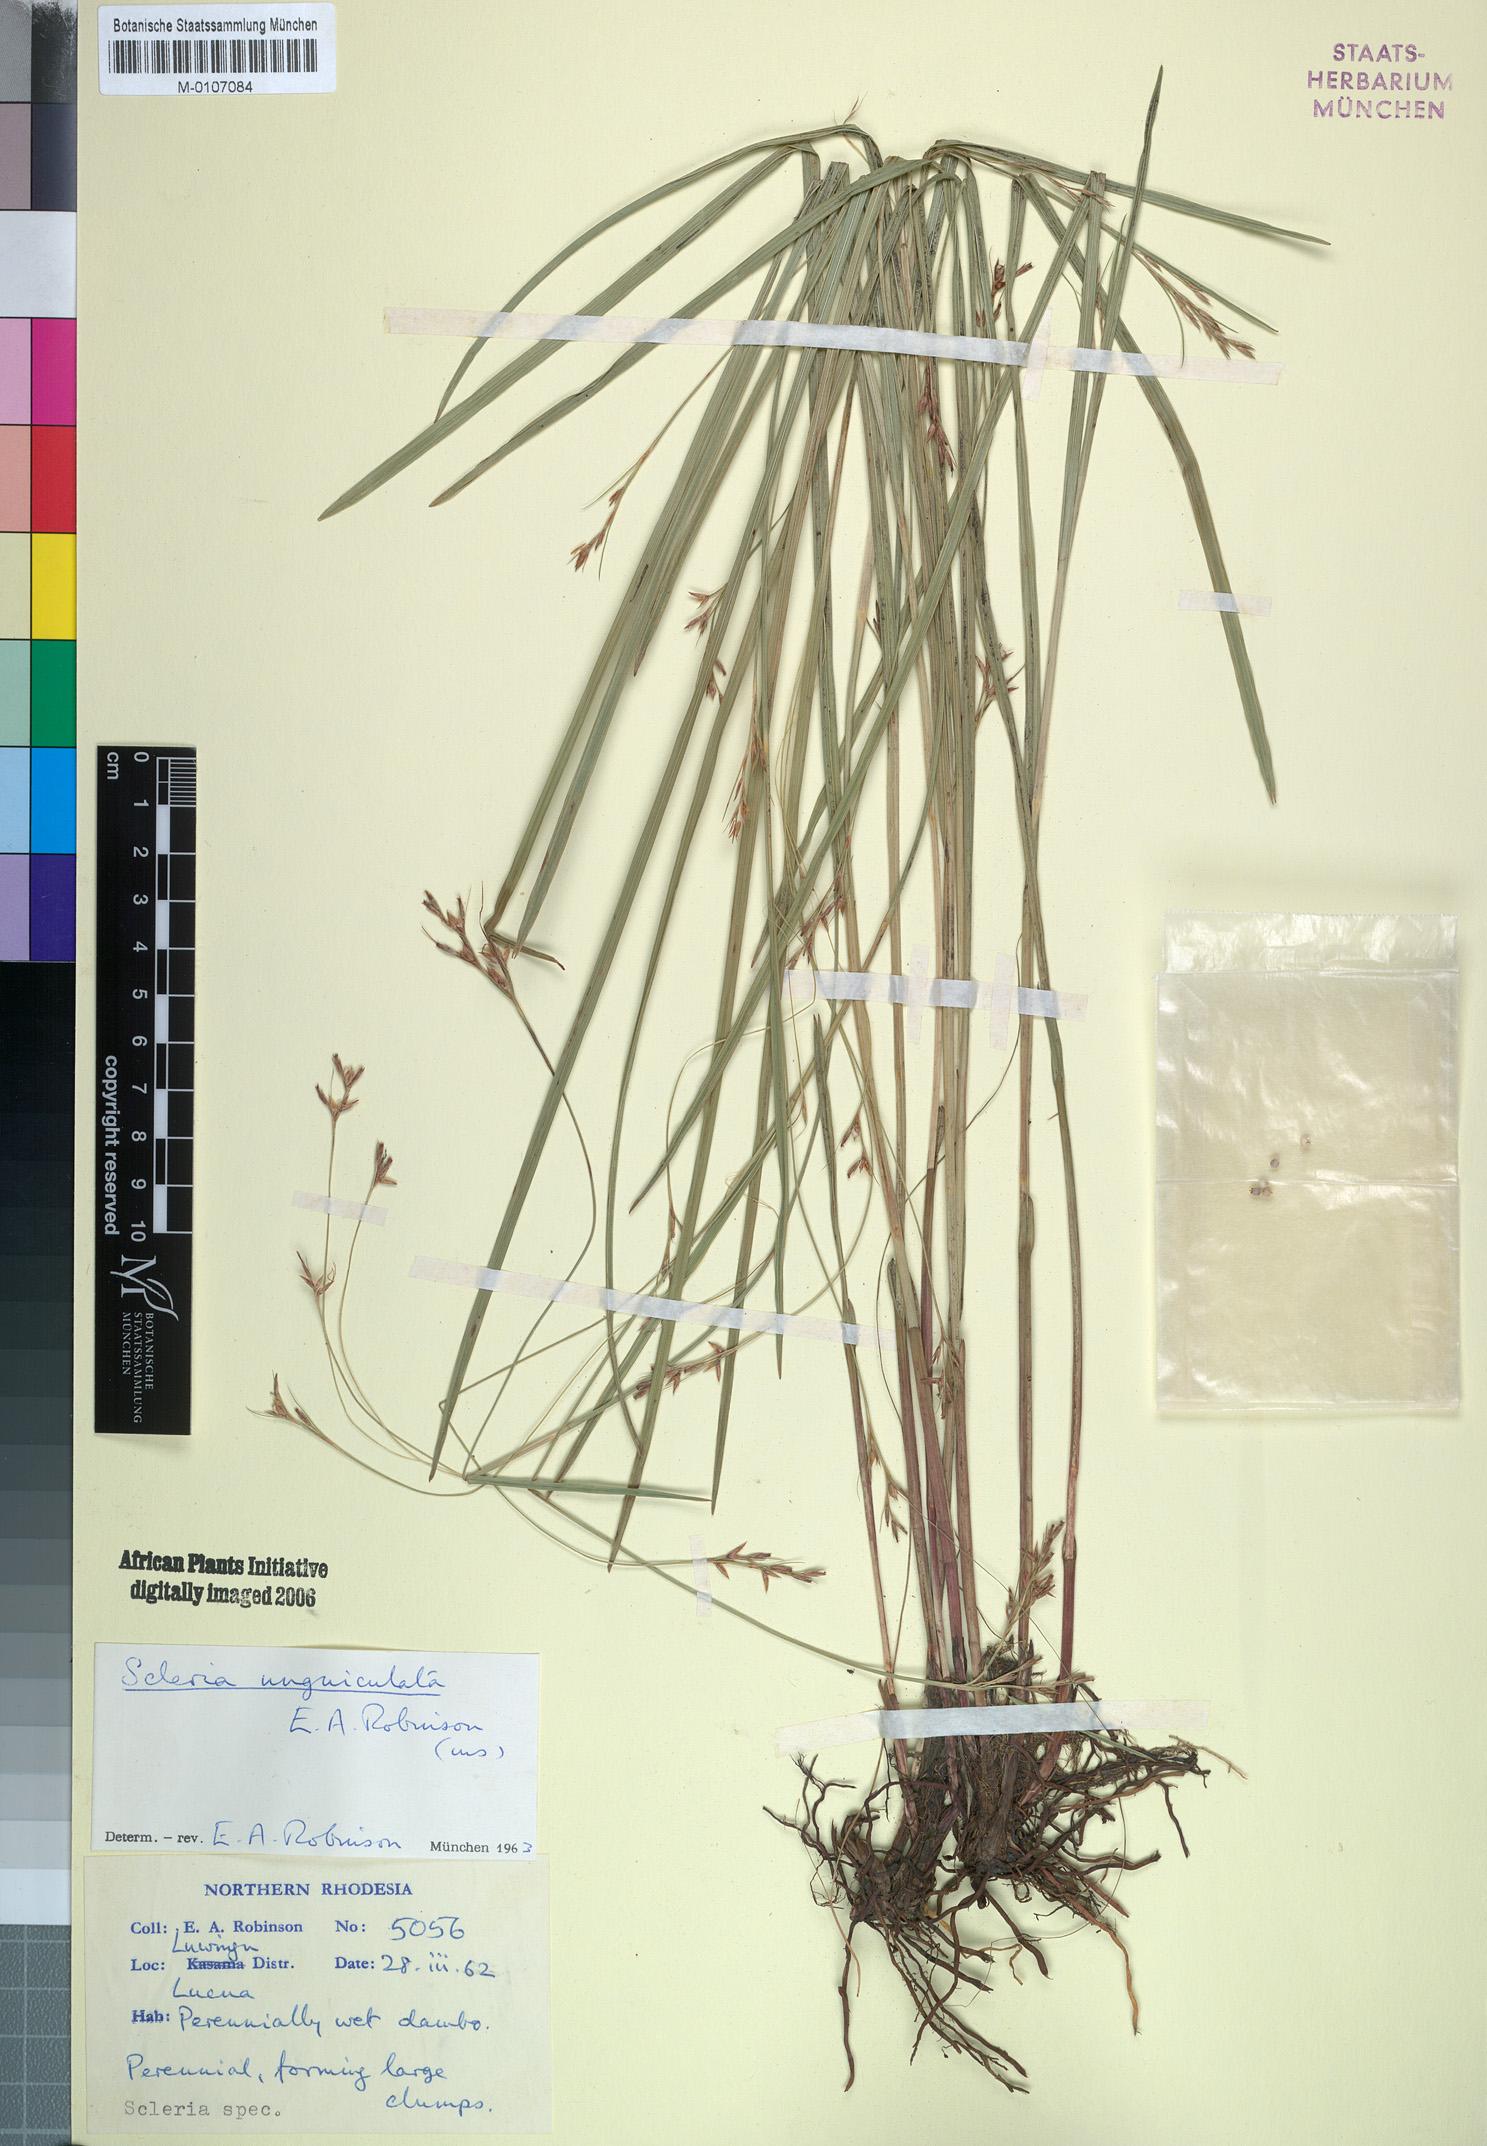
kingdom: Plantae
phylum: Tracheophyta
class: Liliopsida
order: Poales
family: Cyperaceae
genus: Scleria
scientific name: Scleria unguiculata
